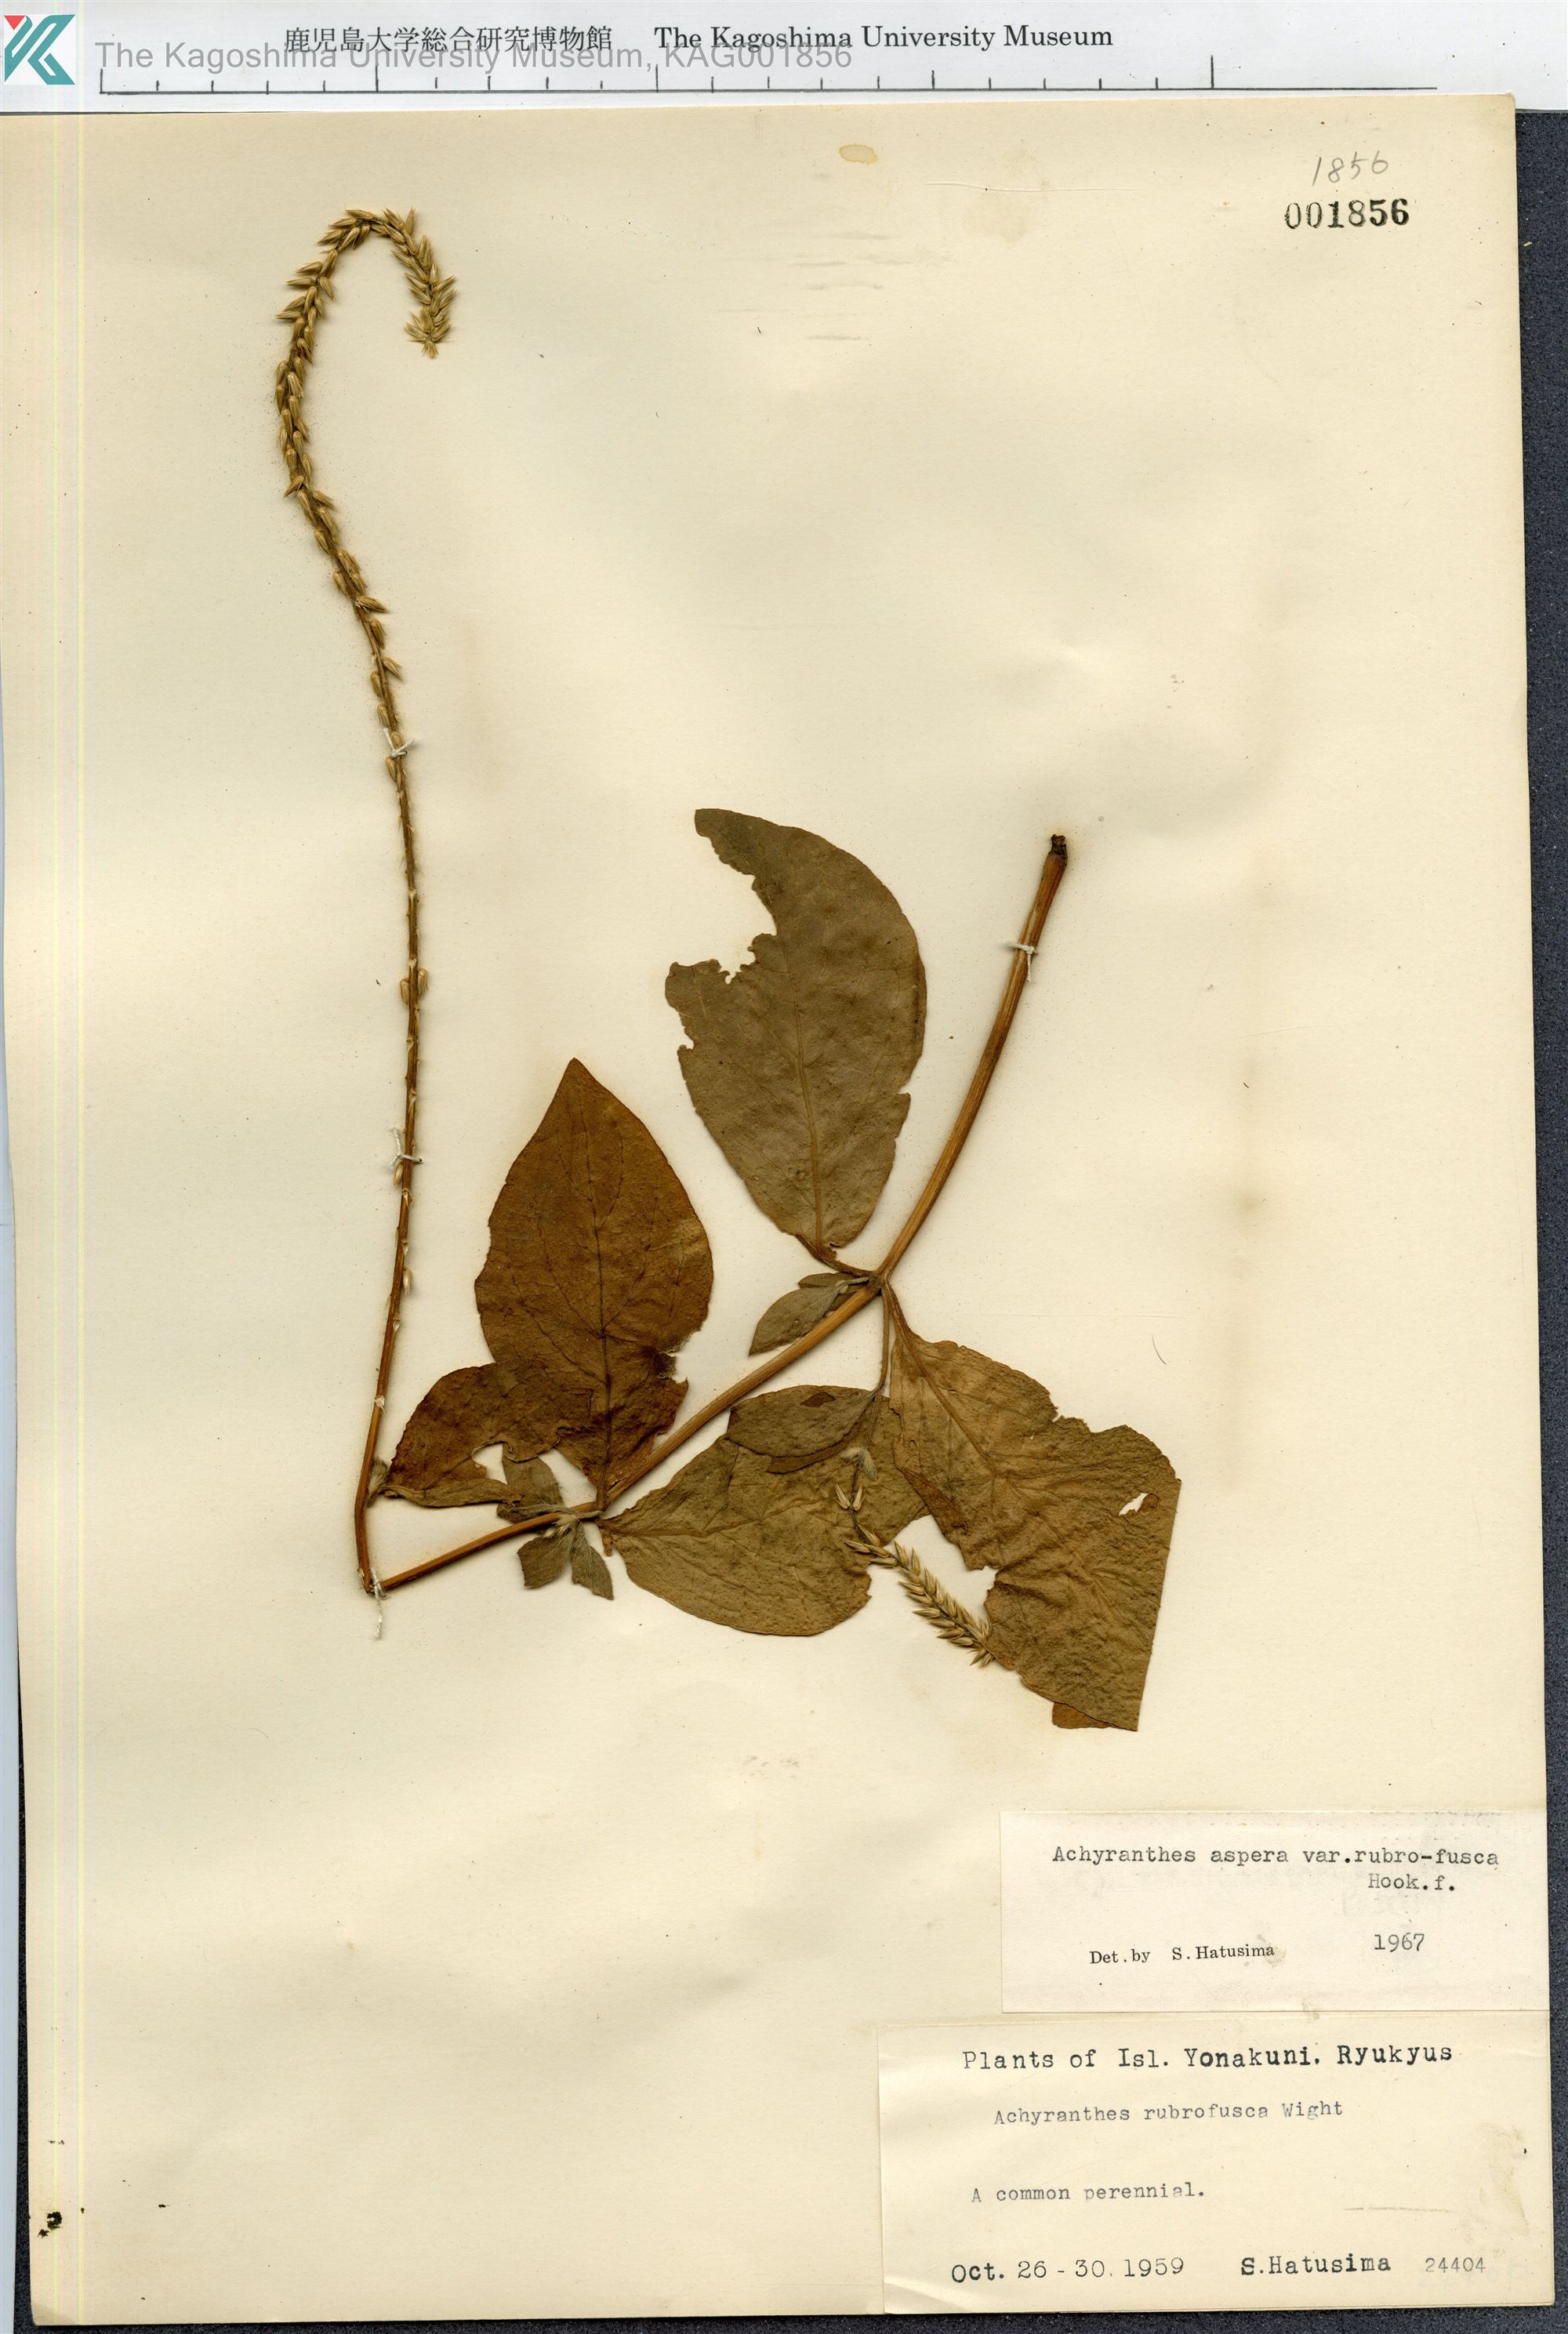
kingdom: Plantae
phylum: Tracheophyta
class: Magnoliopsida
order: Caryophyllales
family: Amaranthaceae
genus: Achyranthes
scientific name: Achyranthes aspera
